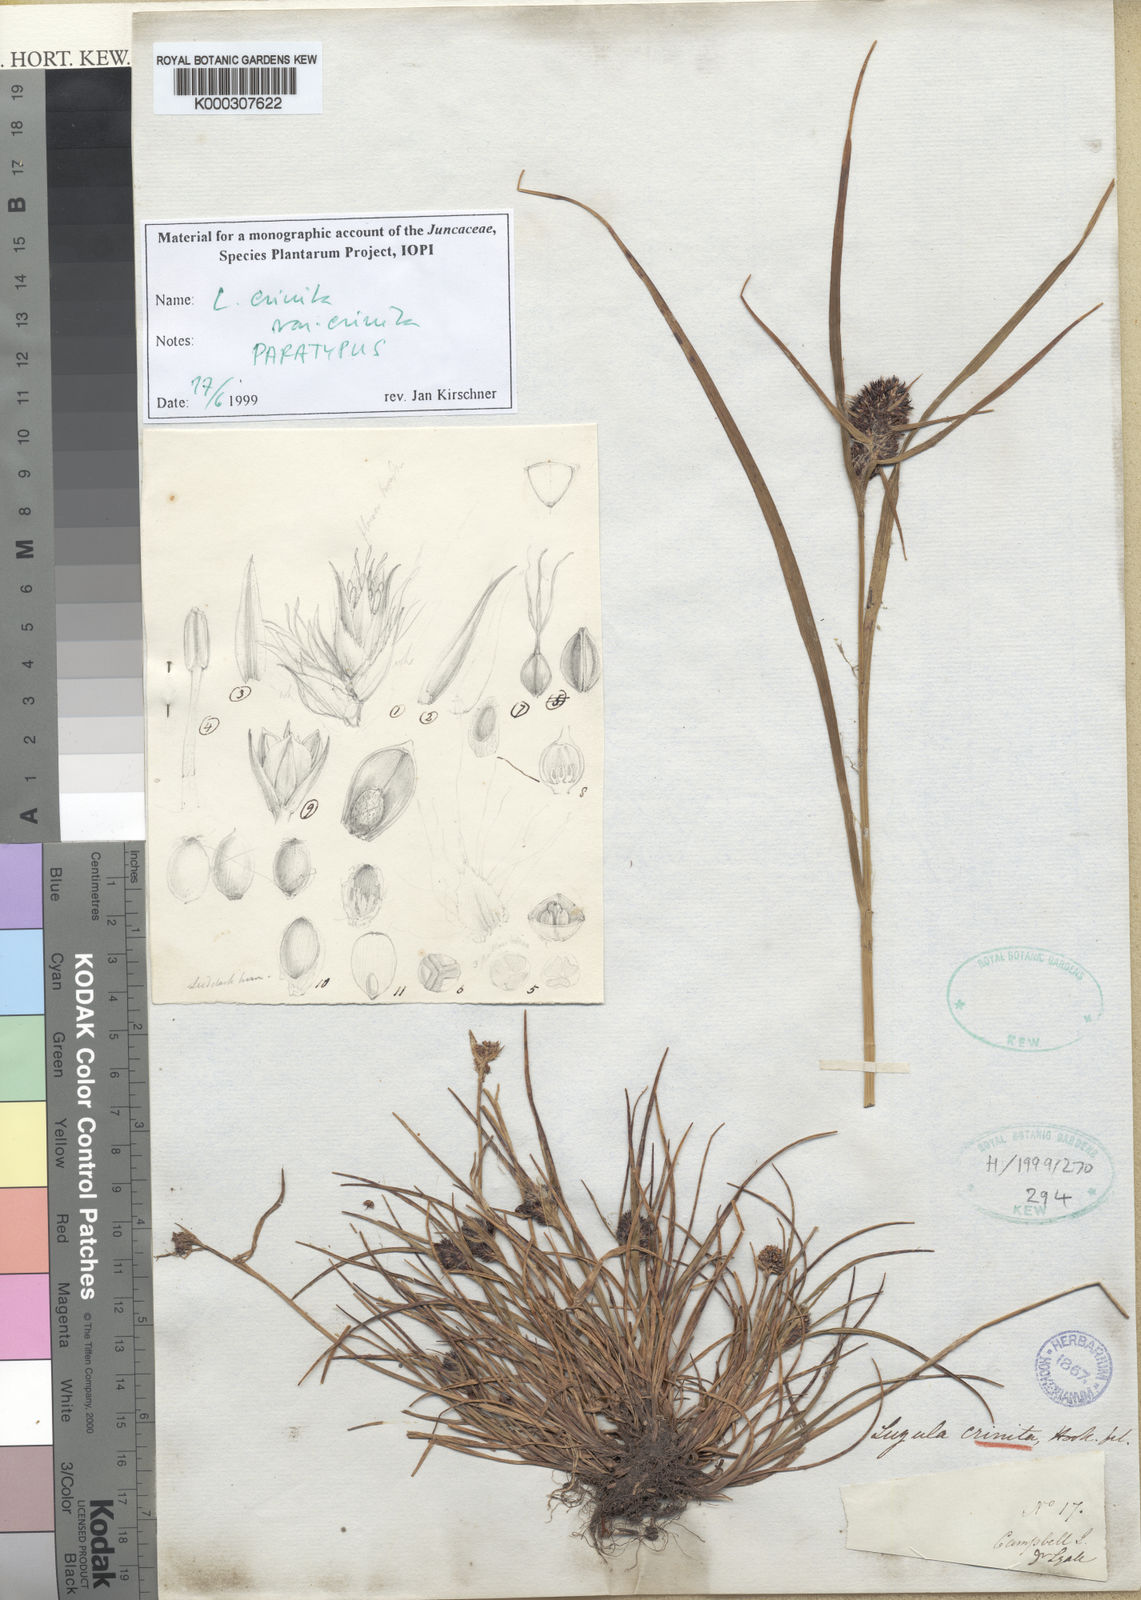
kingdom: Plantae
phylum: Tracheophyta
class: Liliopsida
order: Poales
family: Juncaceae
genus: Luzula
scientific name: Luzula crinita
